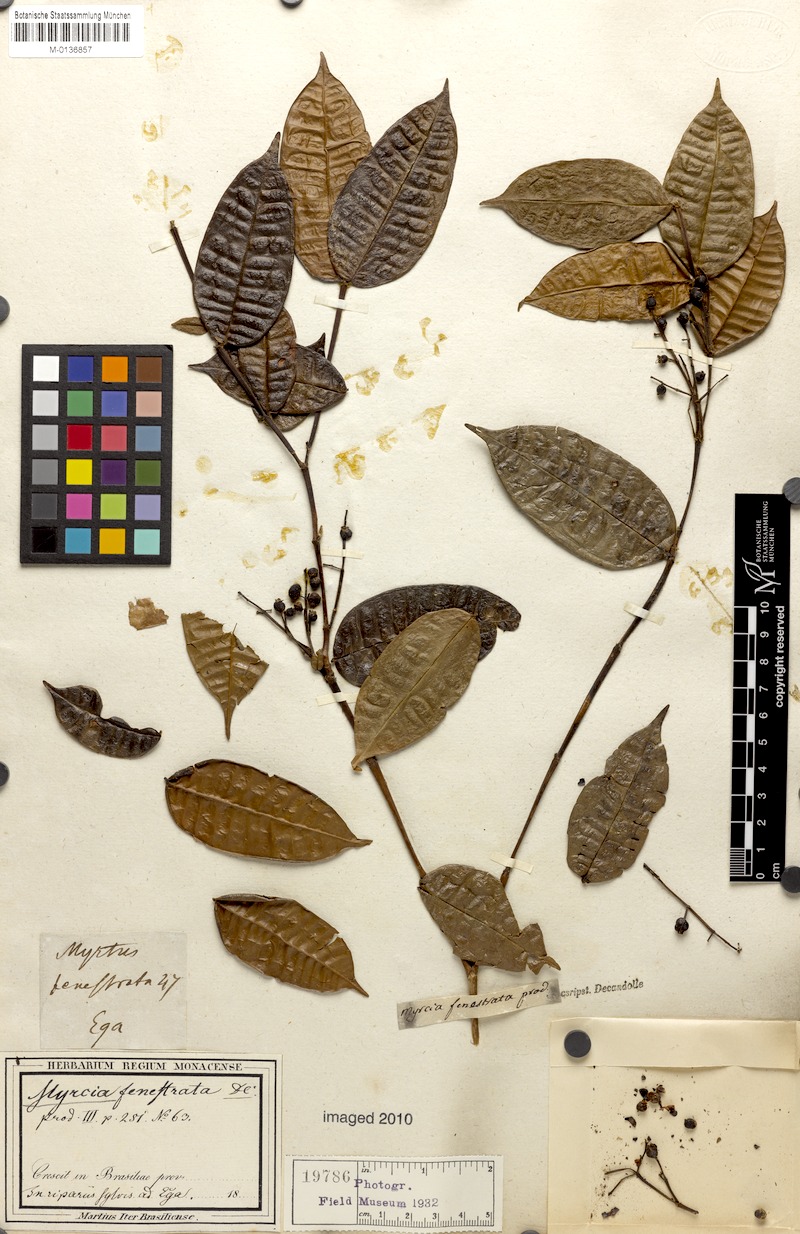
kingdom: Plantae
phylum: Tracheophyta
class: Magnoliopsida
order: Myrtales
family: Myrtaceae
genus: Myrcia
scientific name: Myrcia fenestrata
